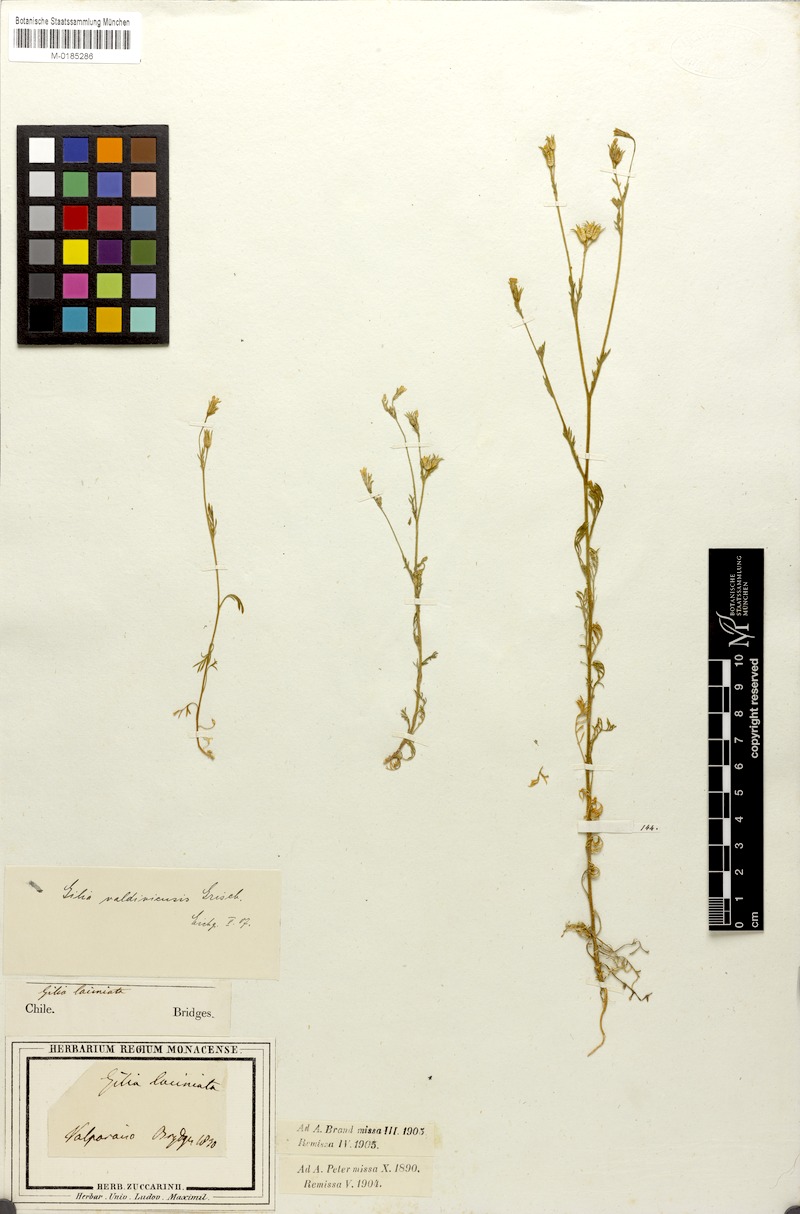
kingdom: Plantae
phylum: Tracheophyta
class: Magnoliopsida
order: Ericales
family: Polemoniaceae
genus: Gilia
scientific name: Gilia valdiviensis
